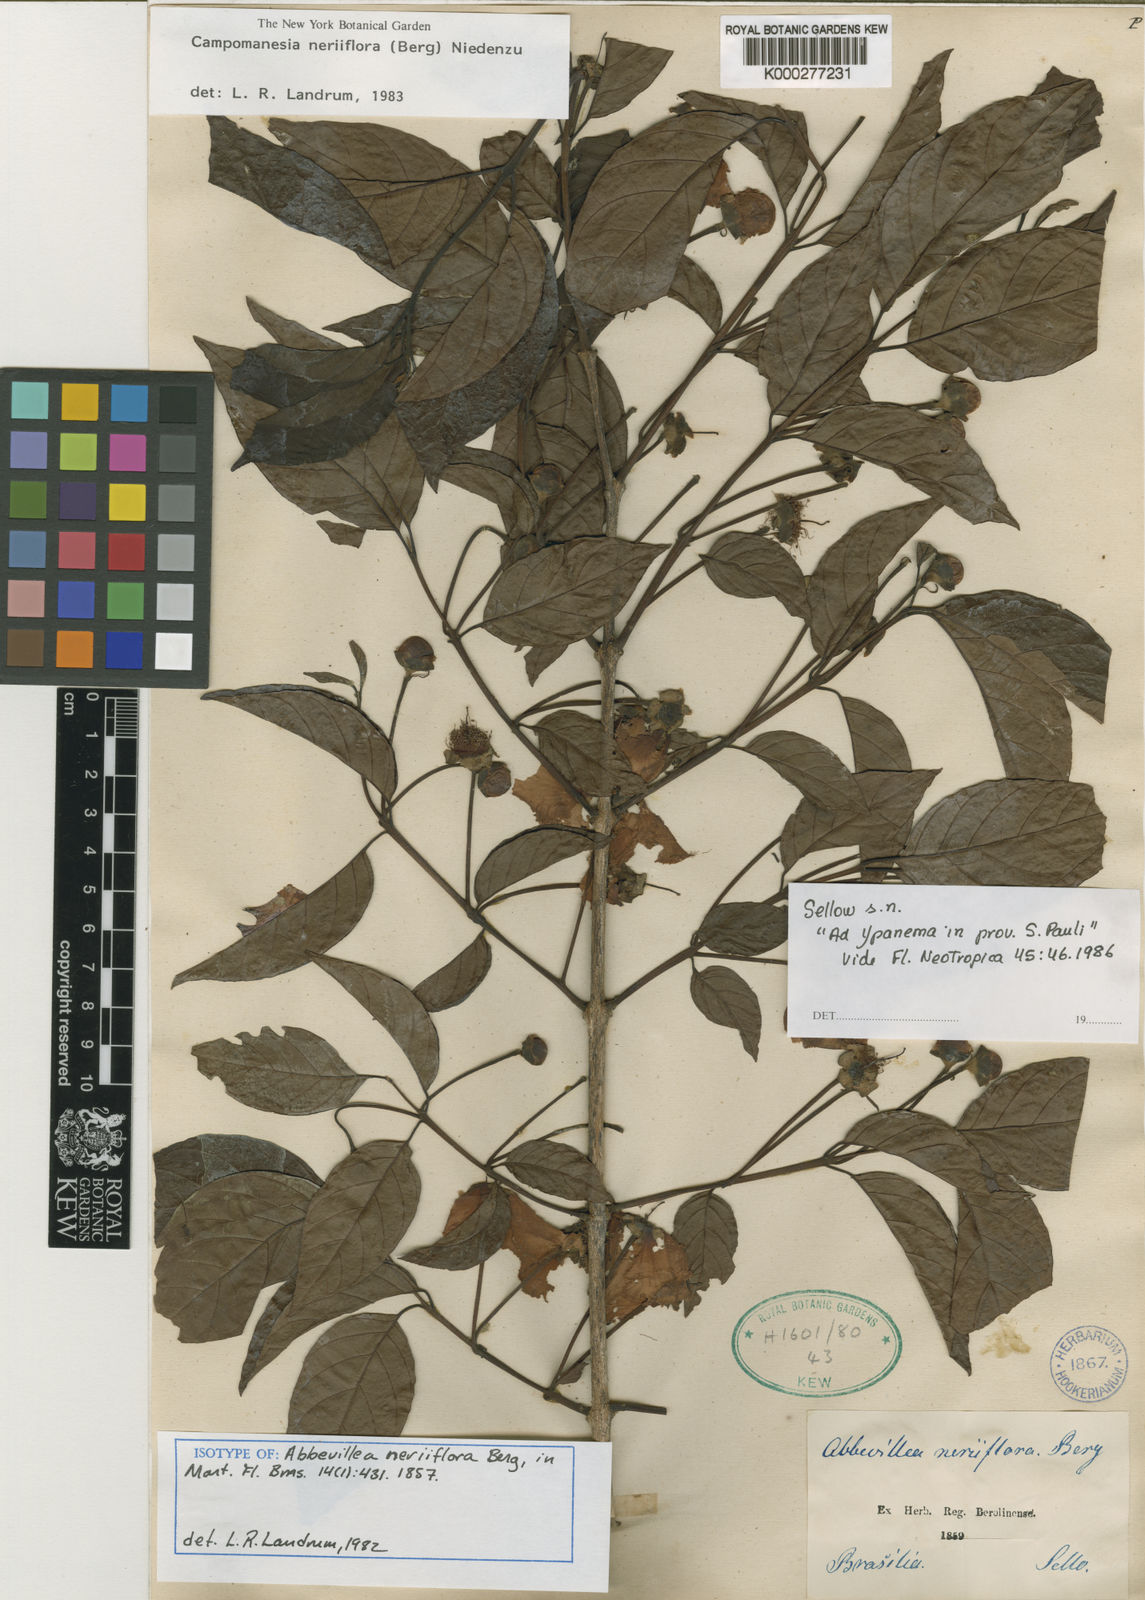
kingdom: Plantae
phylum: Tracheophyta
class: Magnoliopsida
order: Myrtales
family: Myrtaceae
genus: Campomanesia
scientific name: Campomanesia neriiflora
